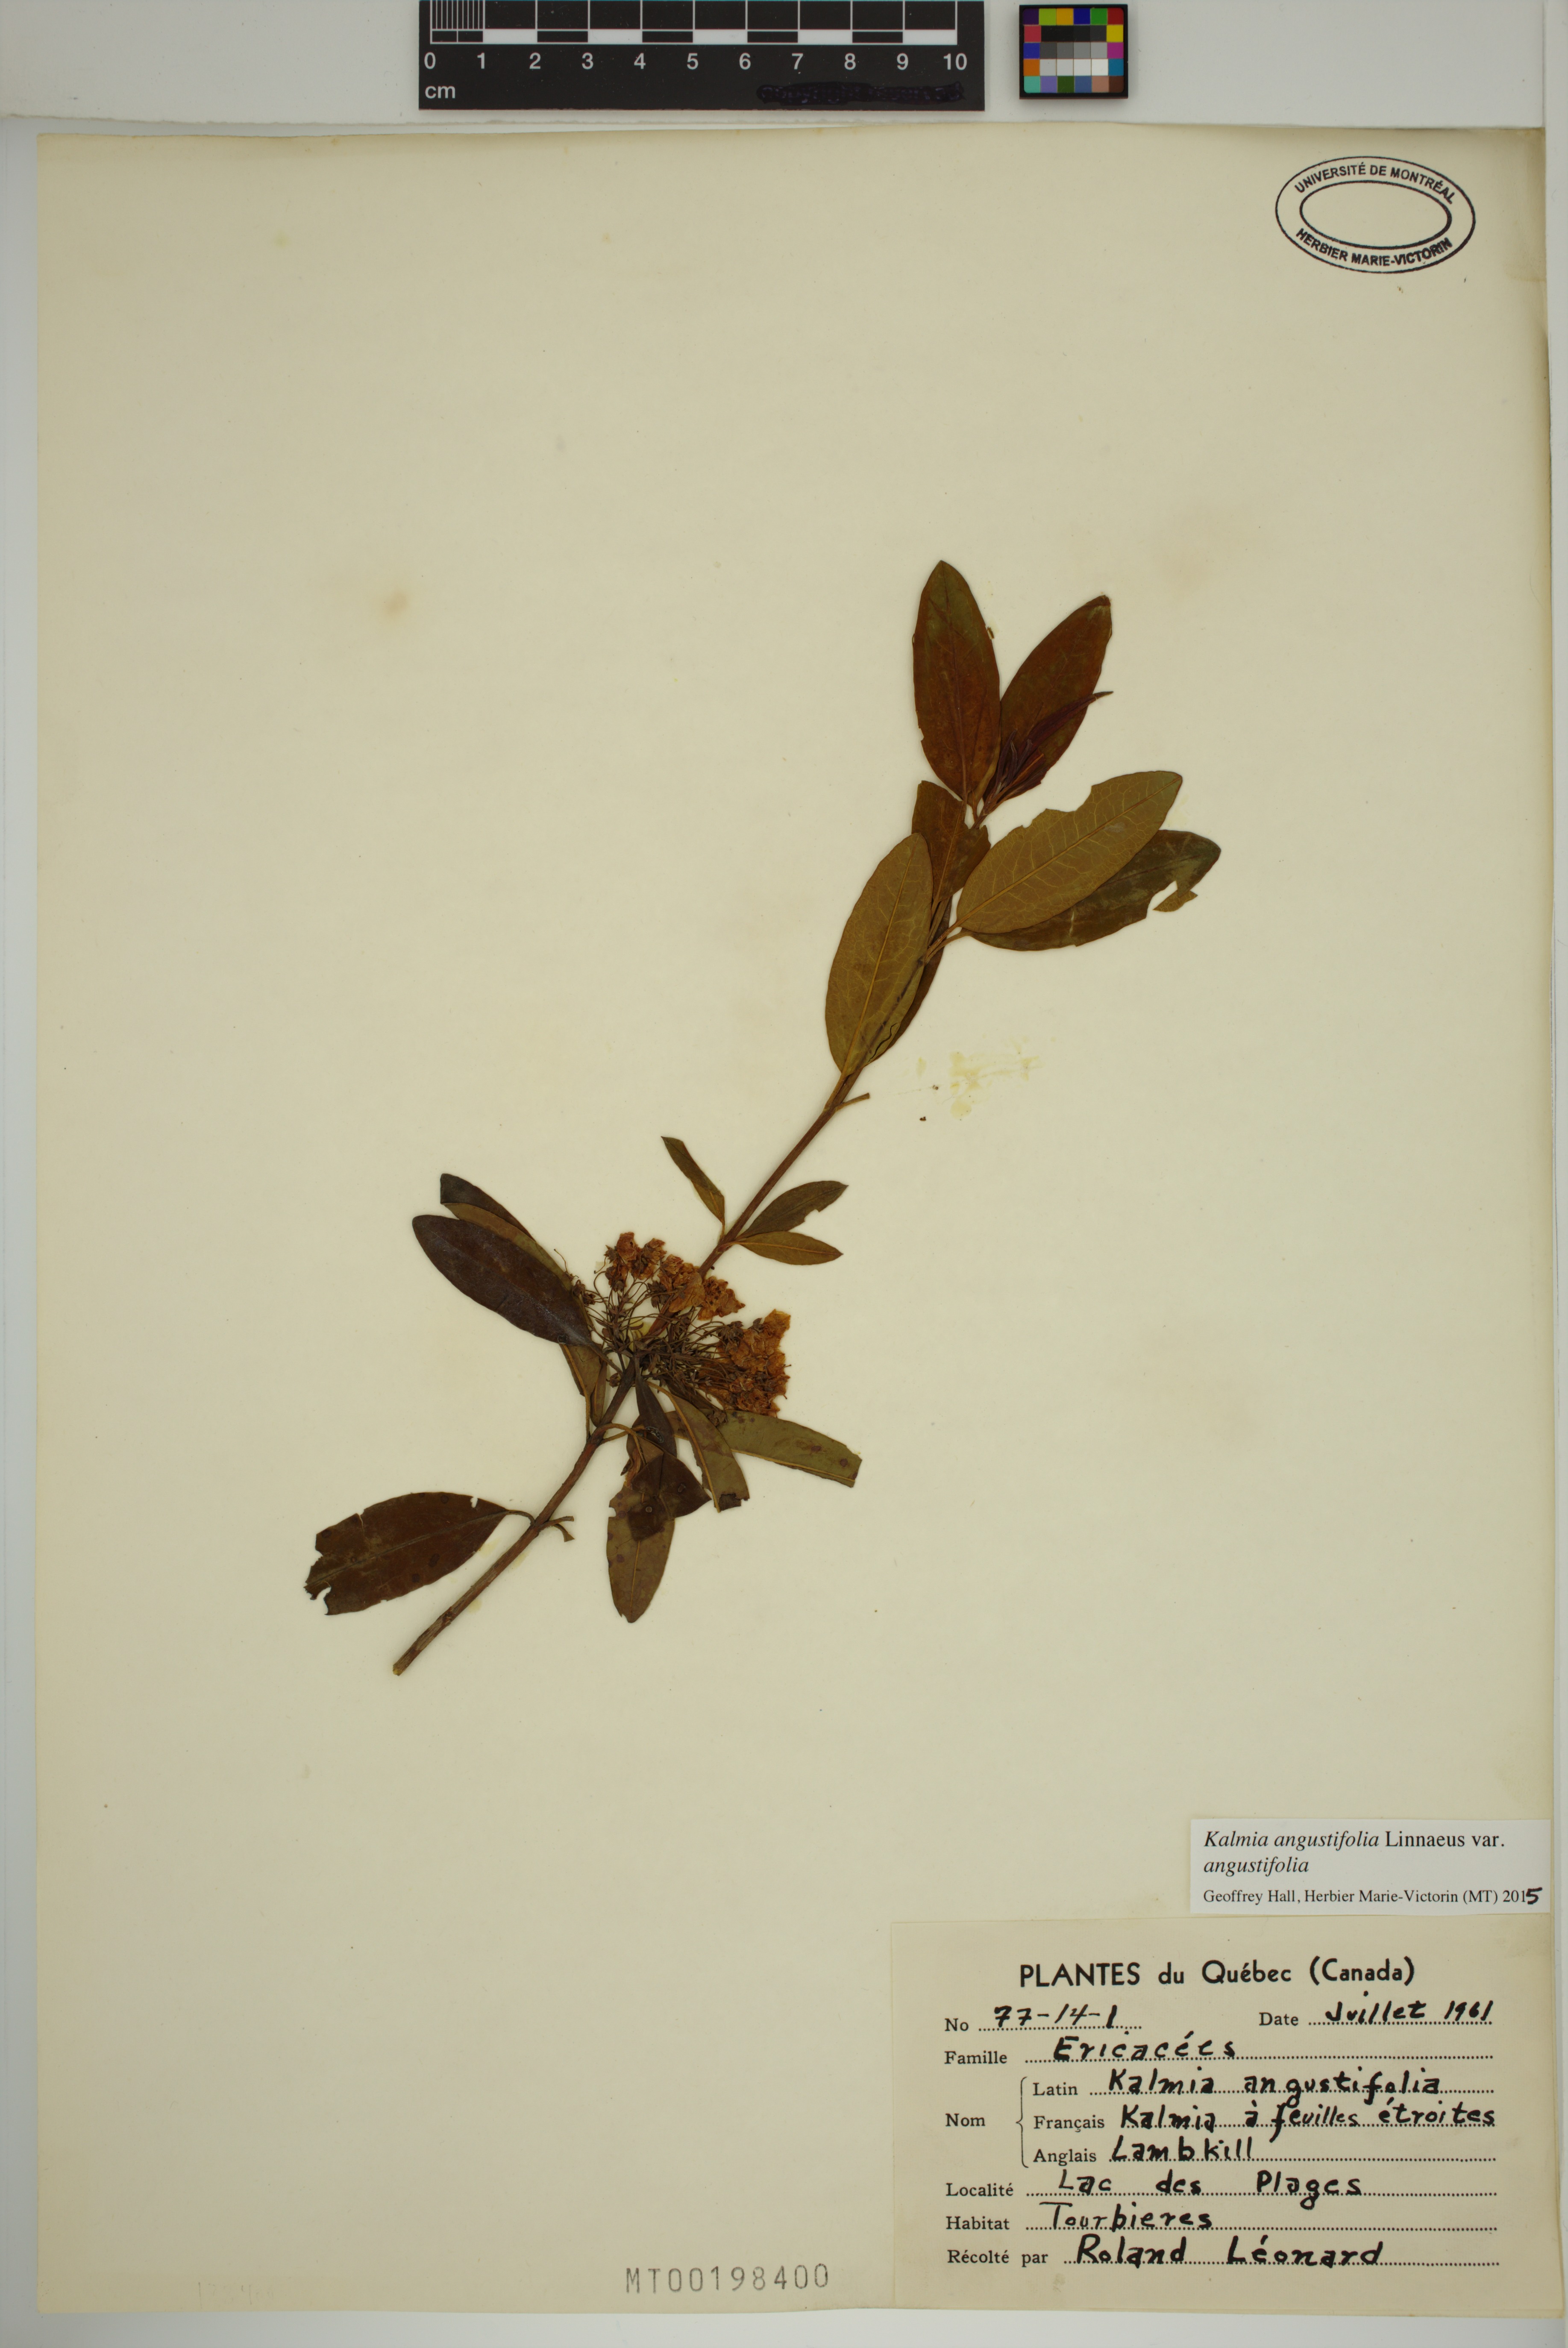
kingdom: Plantae
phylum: Tracheophyta
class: Magnoliopsida
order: Ericales
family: Ericaceae
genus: Kalmia
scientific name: Kalmia angustifolia
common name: Sheep-laurel
